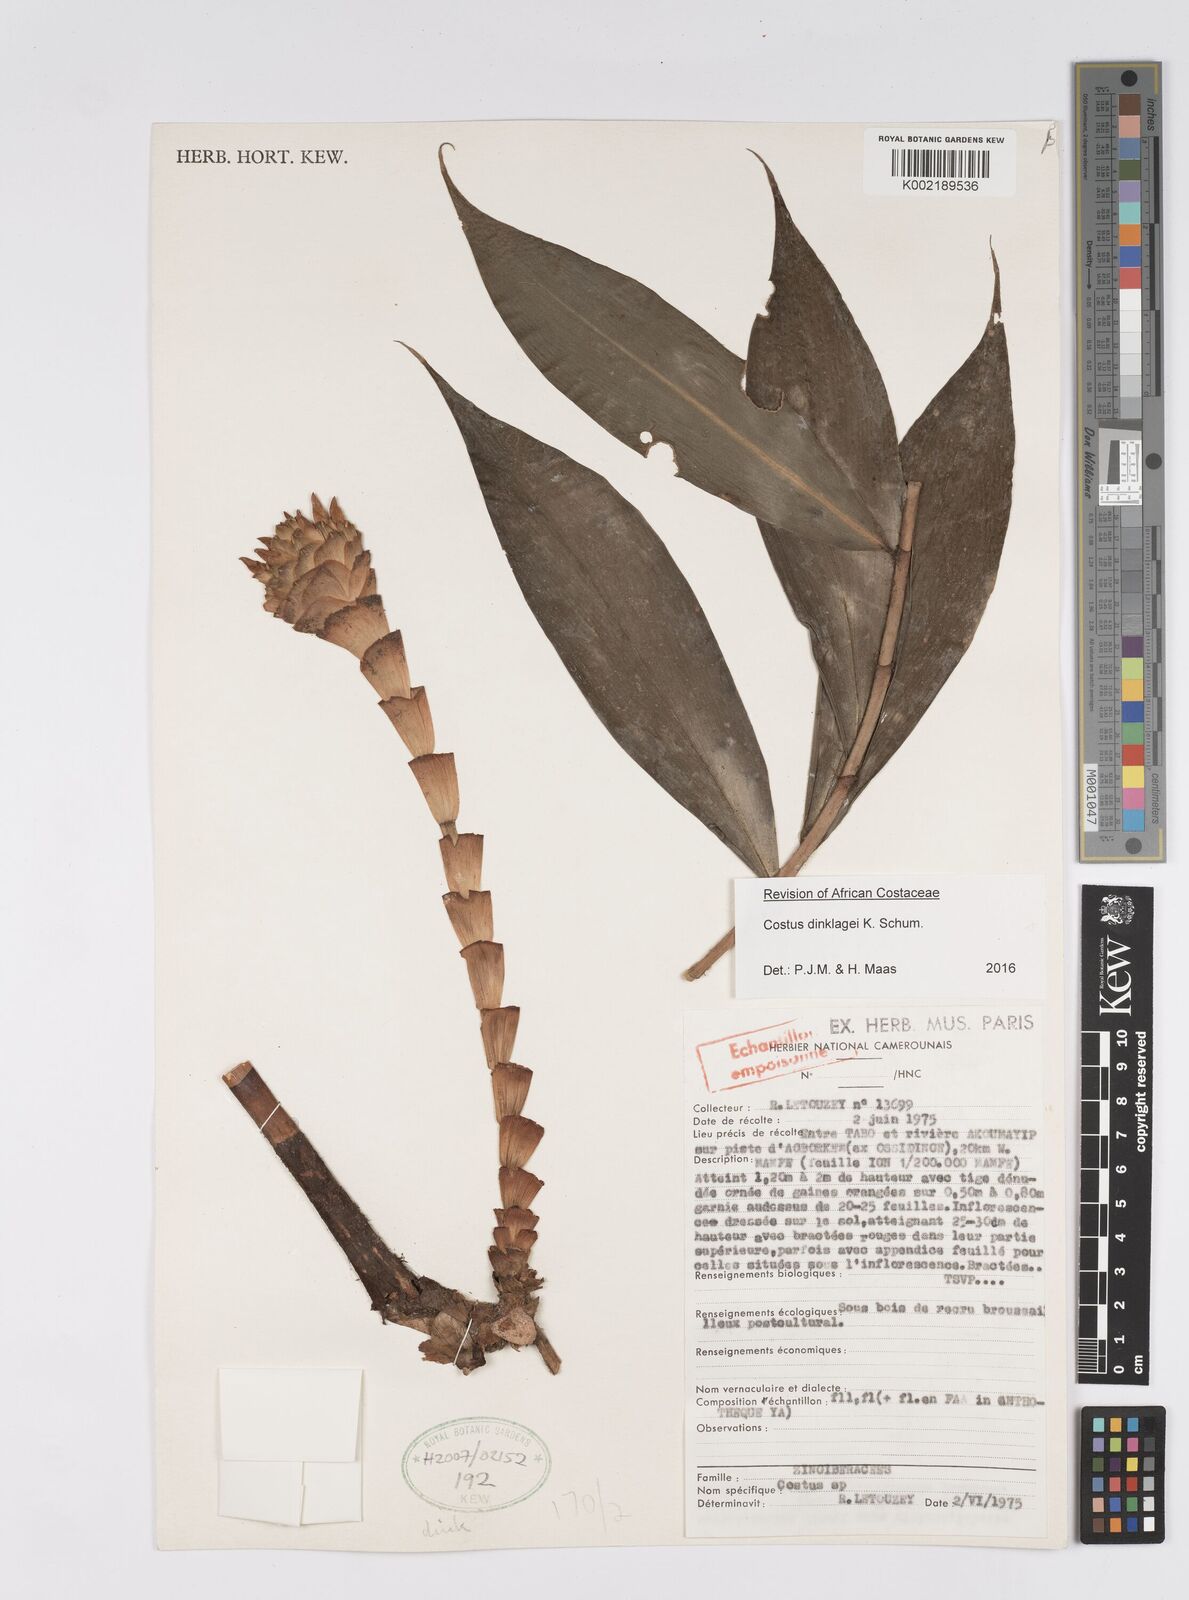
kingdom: Plantae
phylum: Tracheophyta
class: Liliopsida
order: Zingiberales
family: Costaceae
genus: Costus
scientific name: Costus dinklagei
